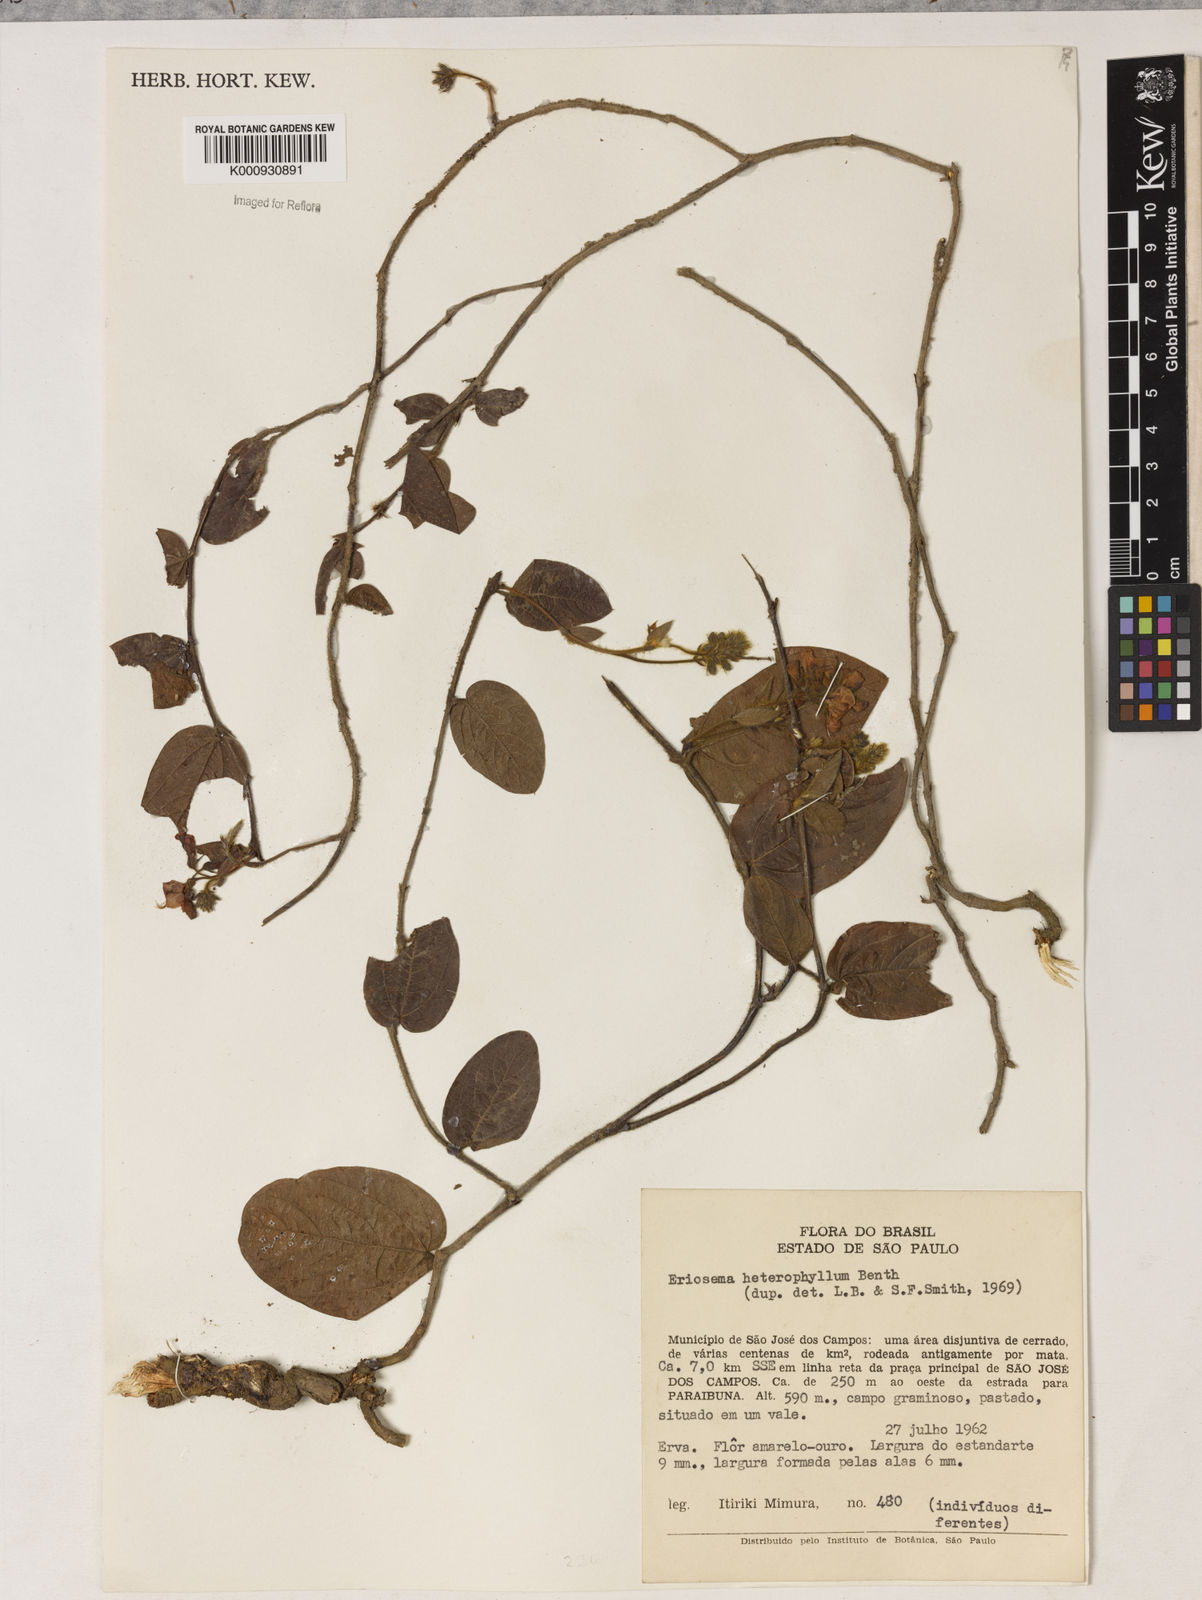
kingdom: Plantae
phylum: Tracheophyta
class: Magnoliopsida
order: Fabales
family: Fabaceae
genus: Eriosema
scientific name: Eriosema heterophyllum
